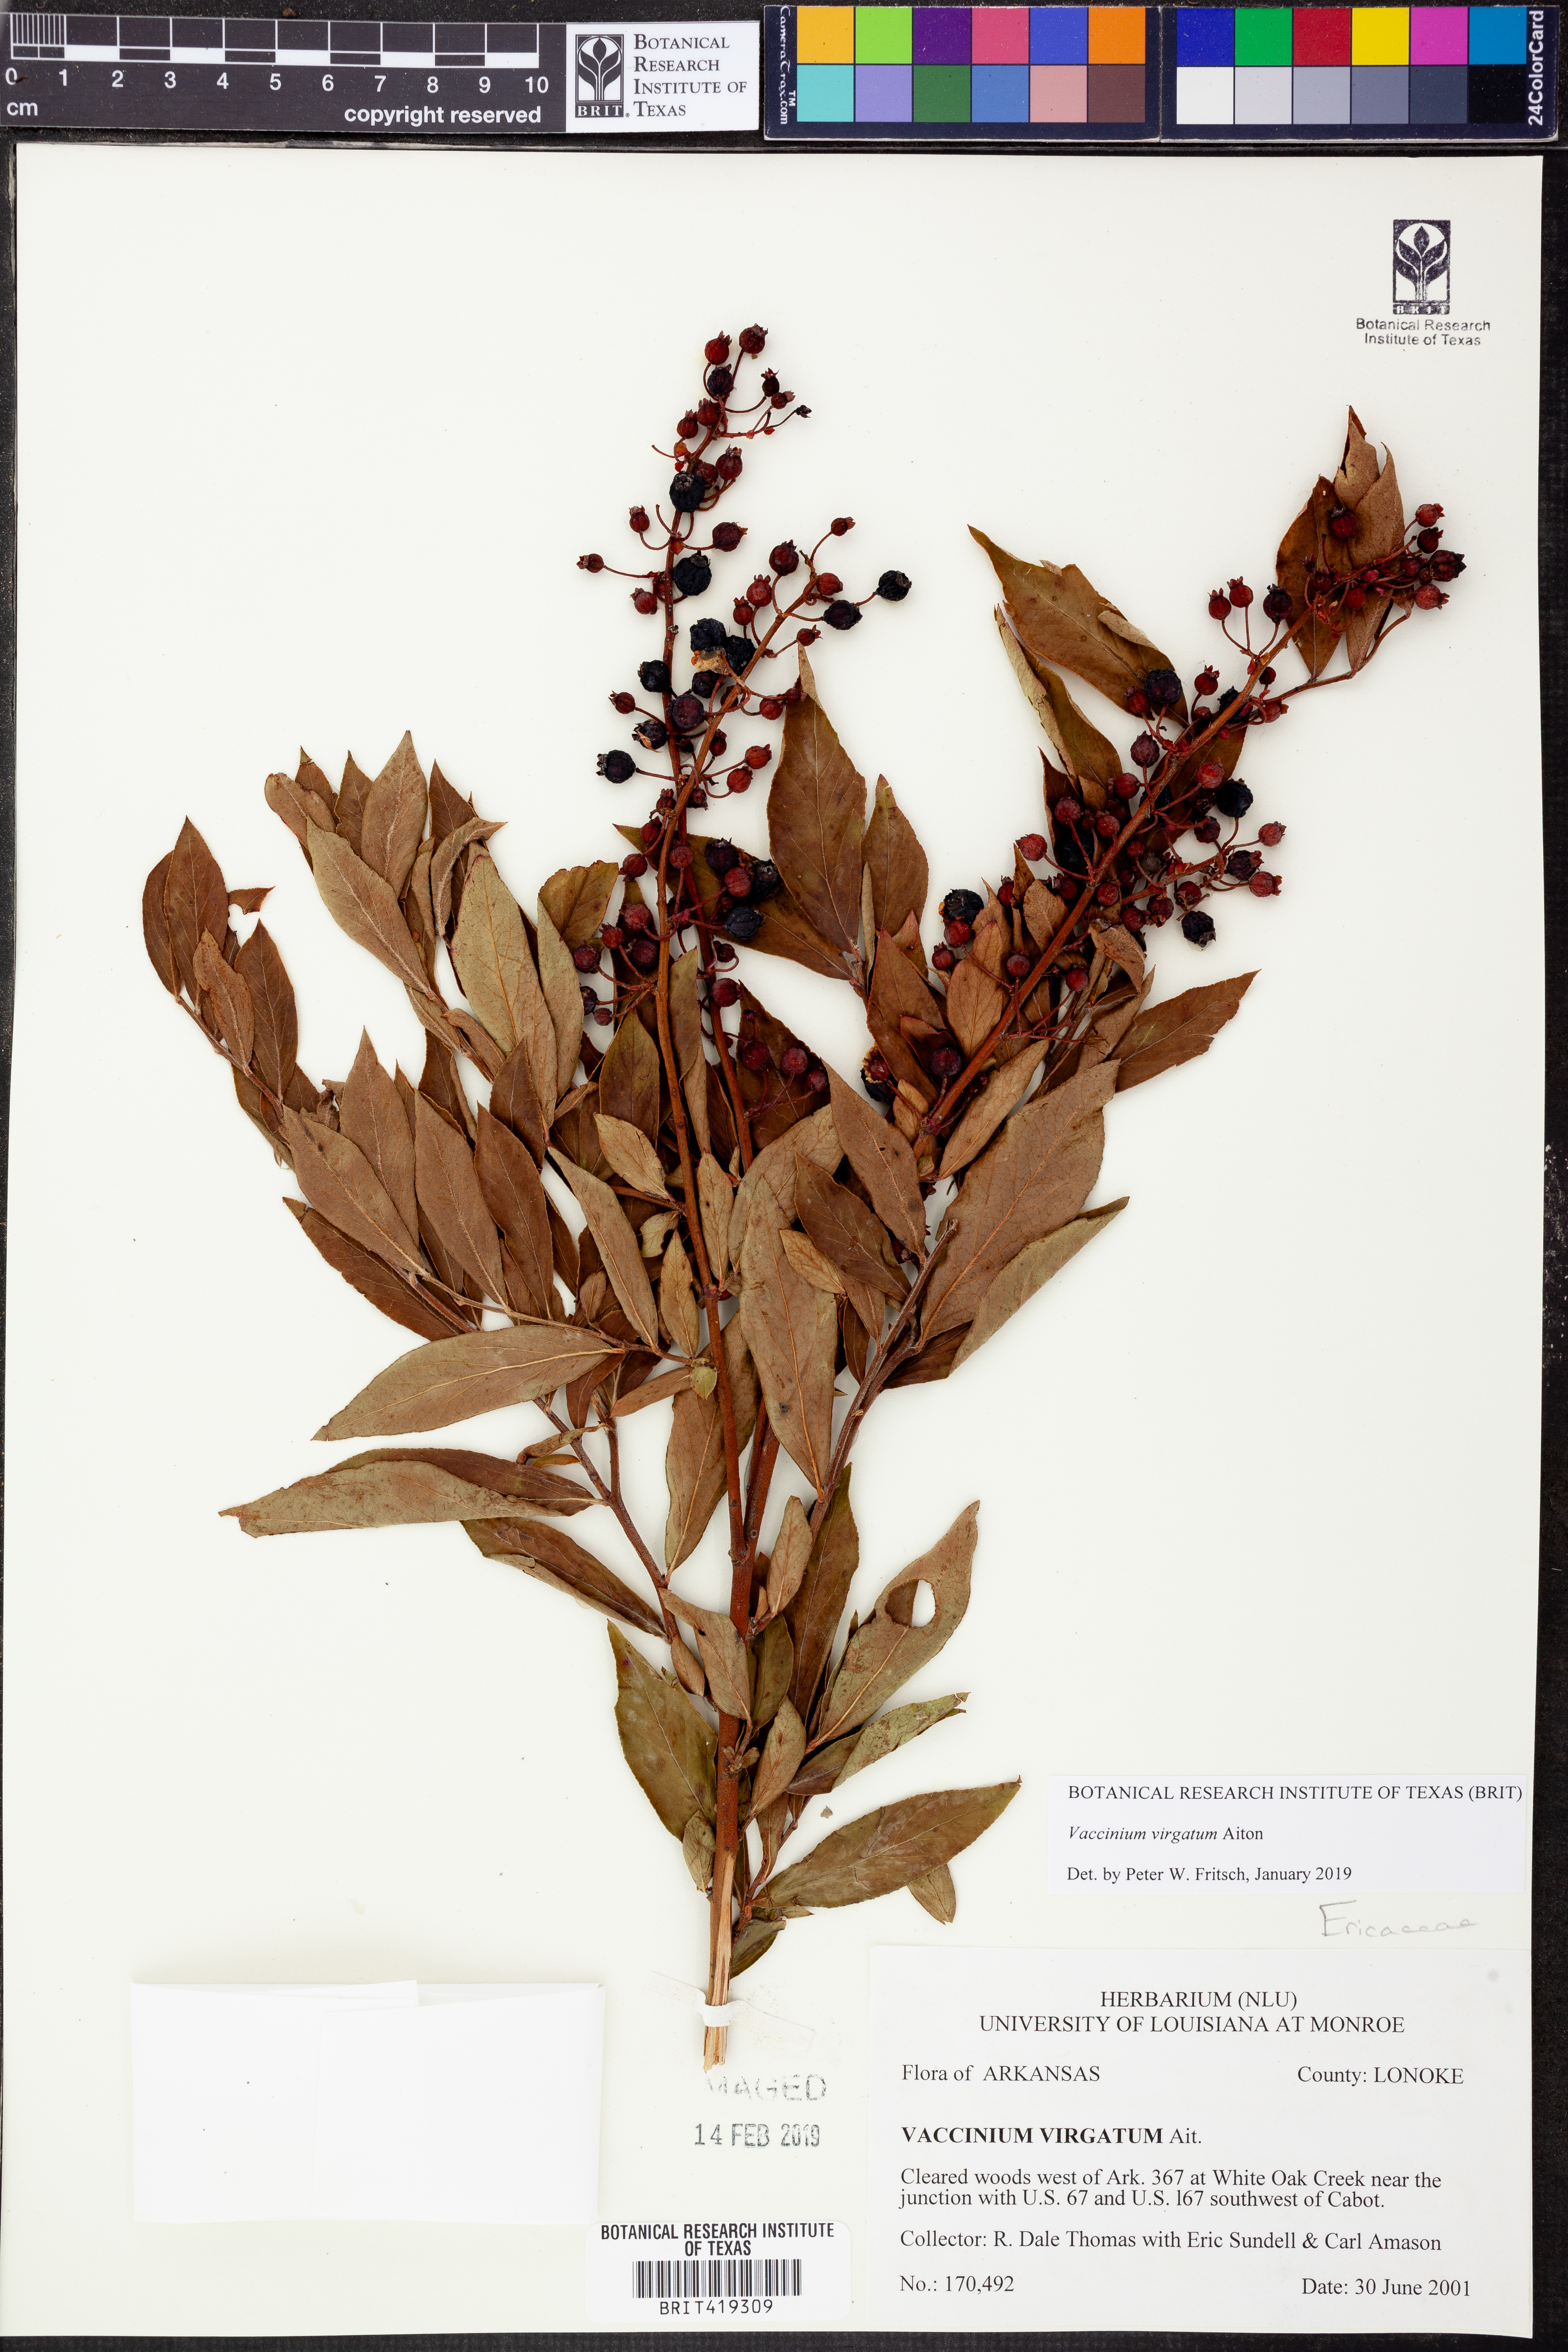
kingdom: Plantae
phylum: Tracheophyta
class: Magnoliopsida
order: Ericales
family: Ericaceae
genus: Vaccinium
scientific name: Vaccinium corymbosum
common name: Blueberry
